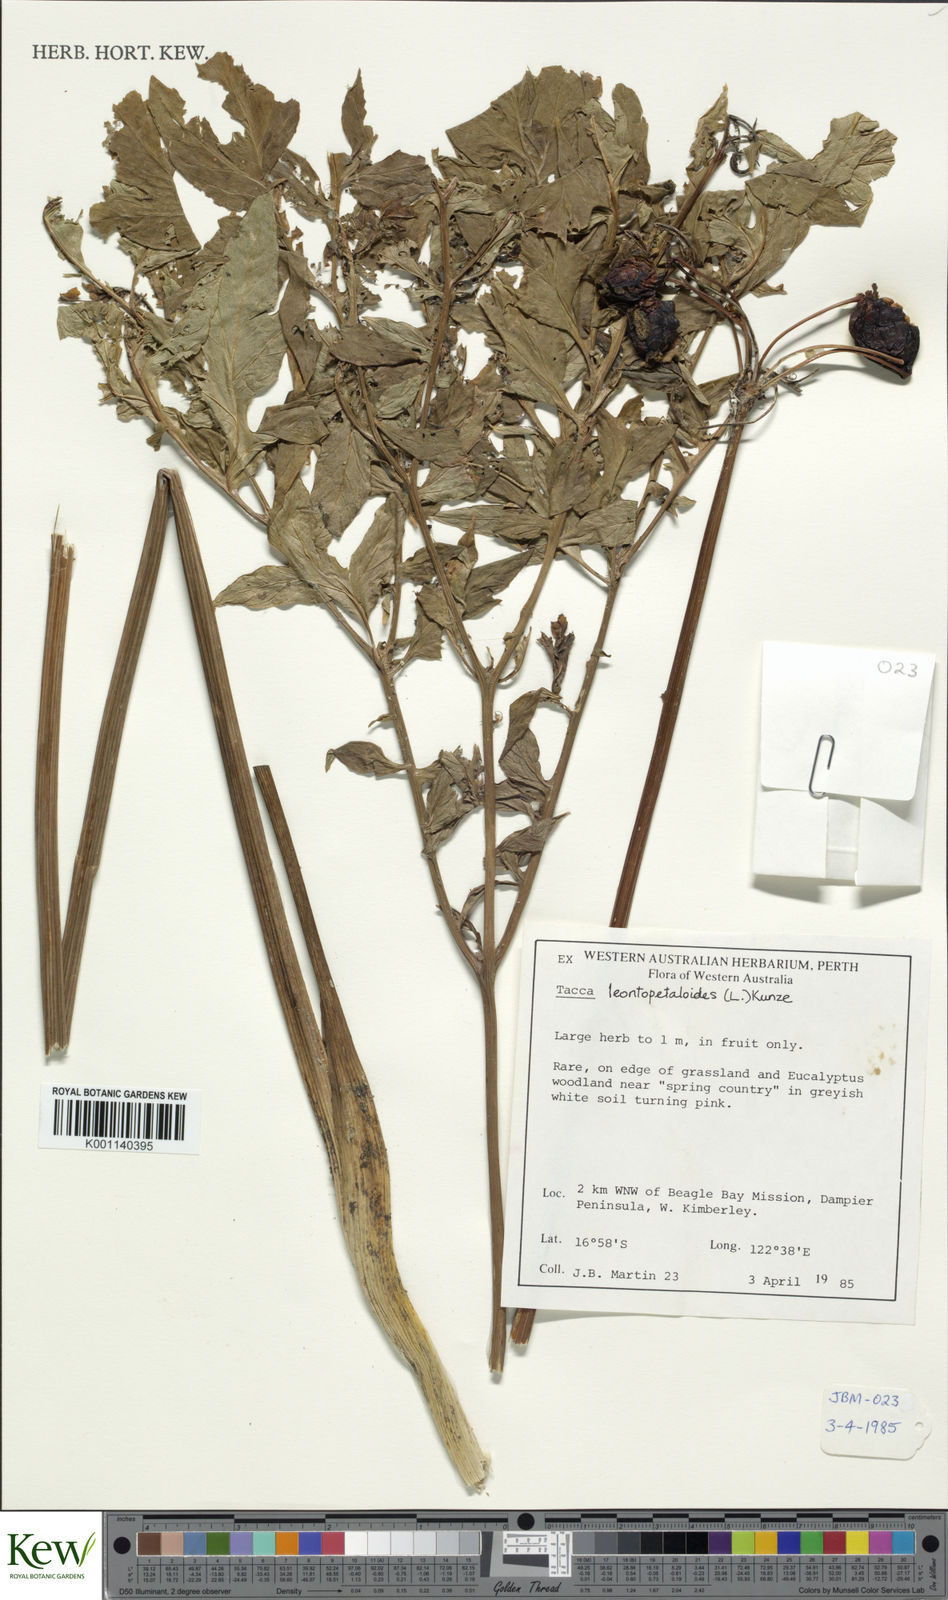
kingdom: Plantae
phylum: Tracheophyta
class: Liliopsida
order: Dioscoreales
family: Dioscoreaceae
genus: Tacca
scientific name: Tacca leontopetaloides
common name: Arrowroot
